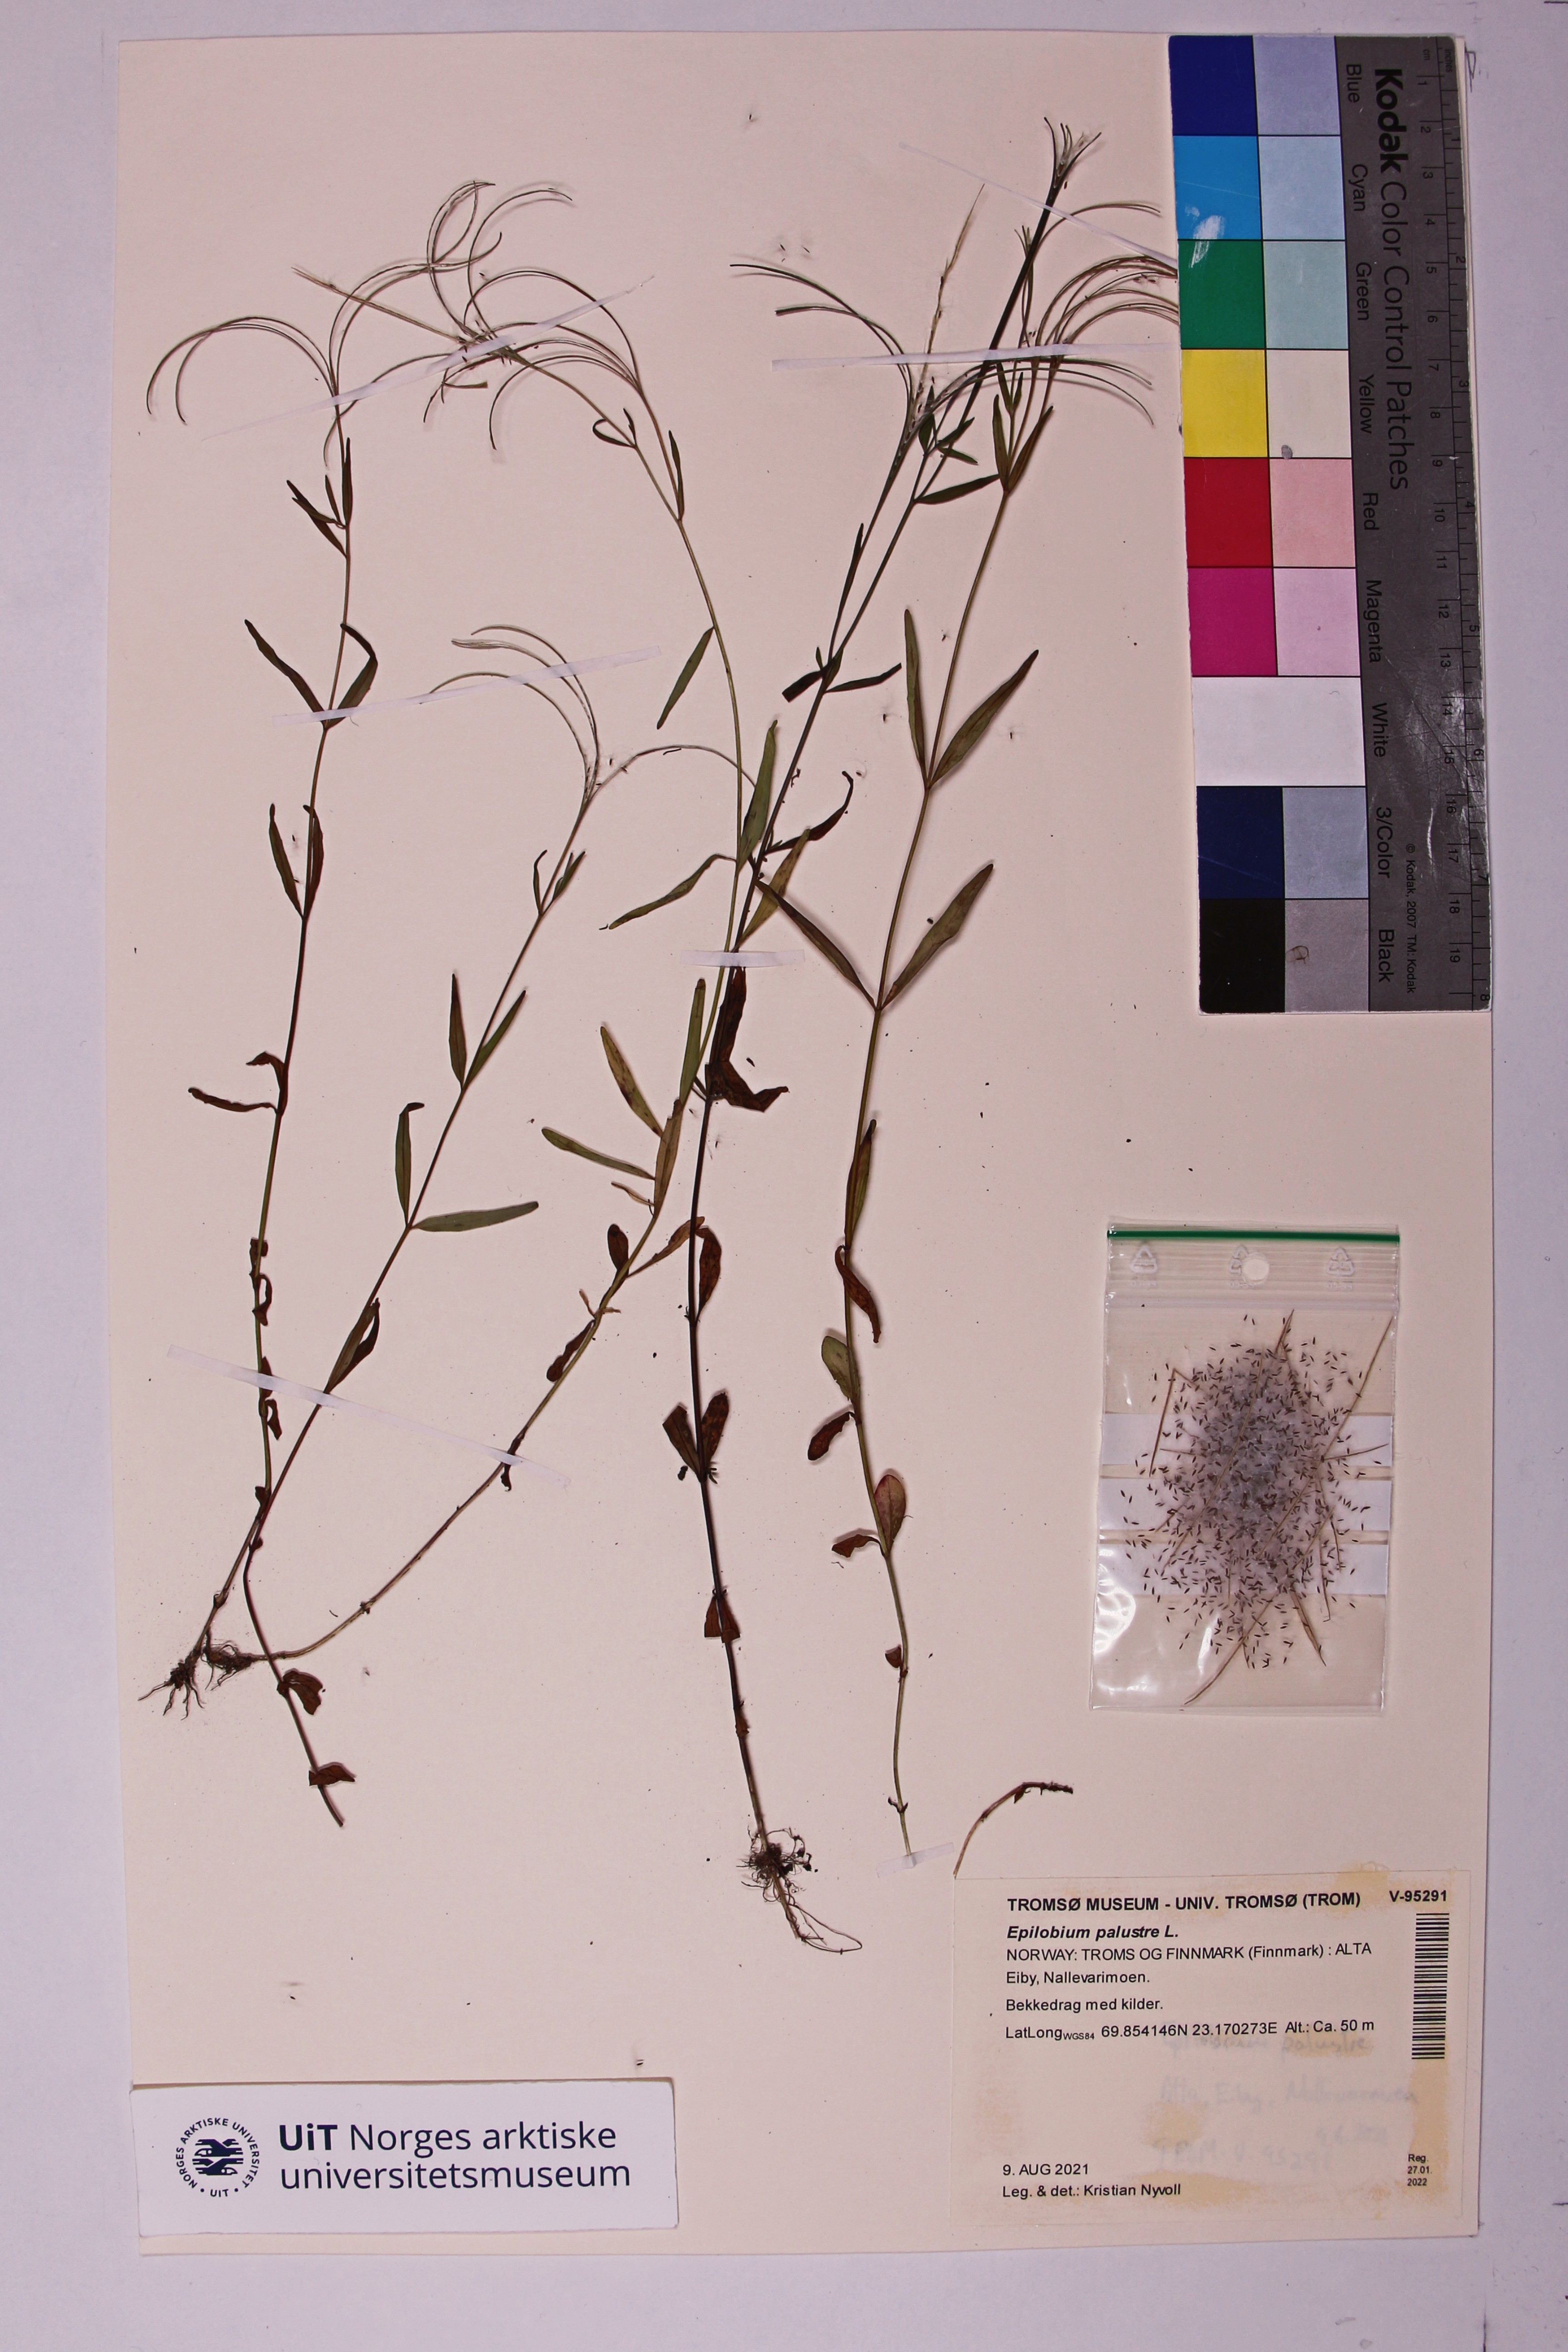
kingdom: Plantae
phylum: Tracheophyta
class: Magnoliopsida
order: Myrtales
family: Onagraceae
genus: Epilobium
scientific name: Epilobium palustre
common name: Marsh willowherb
